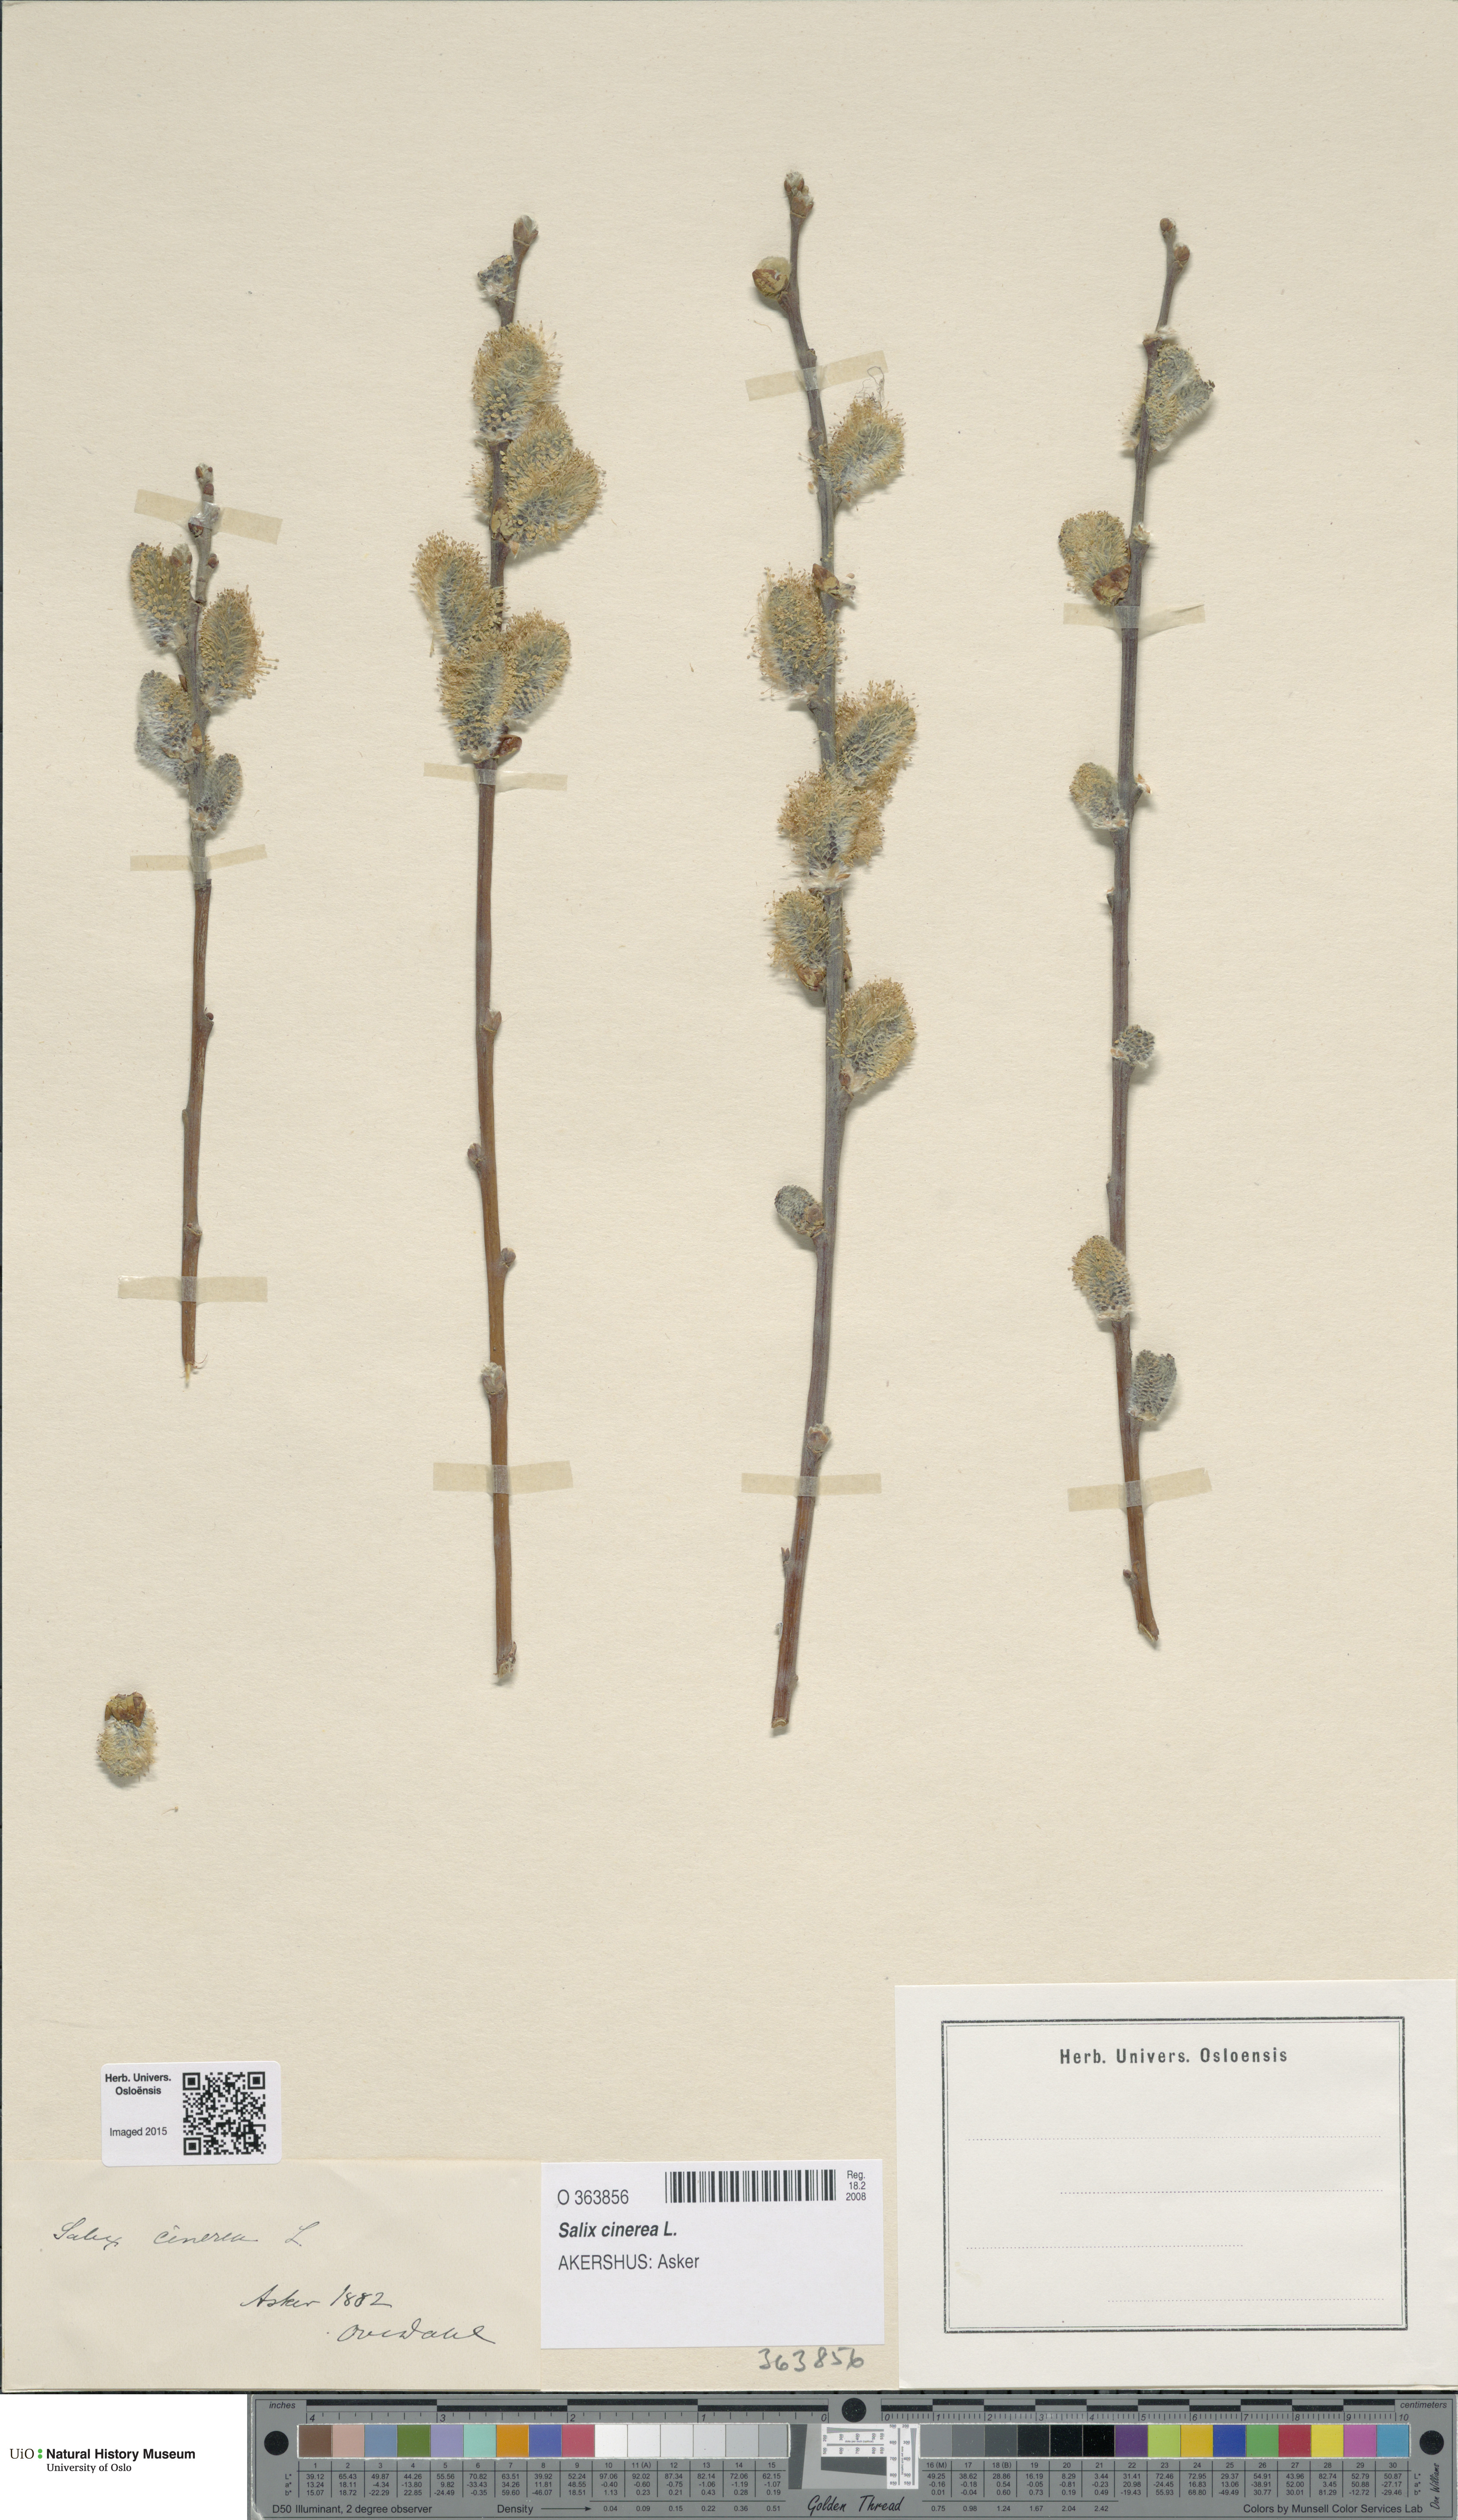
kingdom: Plantae
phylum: Tracheophyta
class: Magnoliopsida
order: Malpighiales
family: Salicaceae
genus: Salix
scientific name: Salix cinerea
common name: Common sallow
